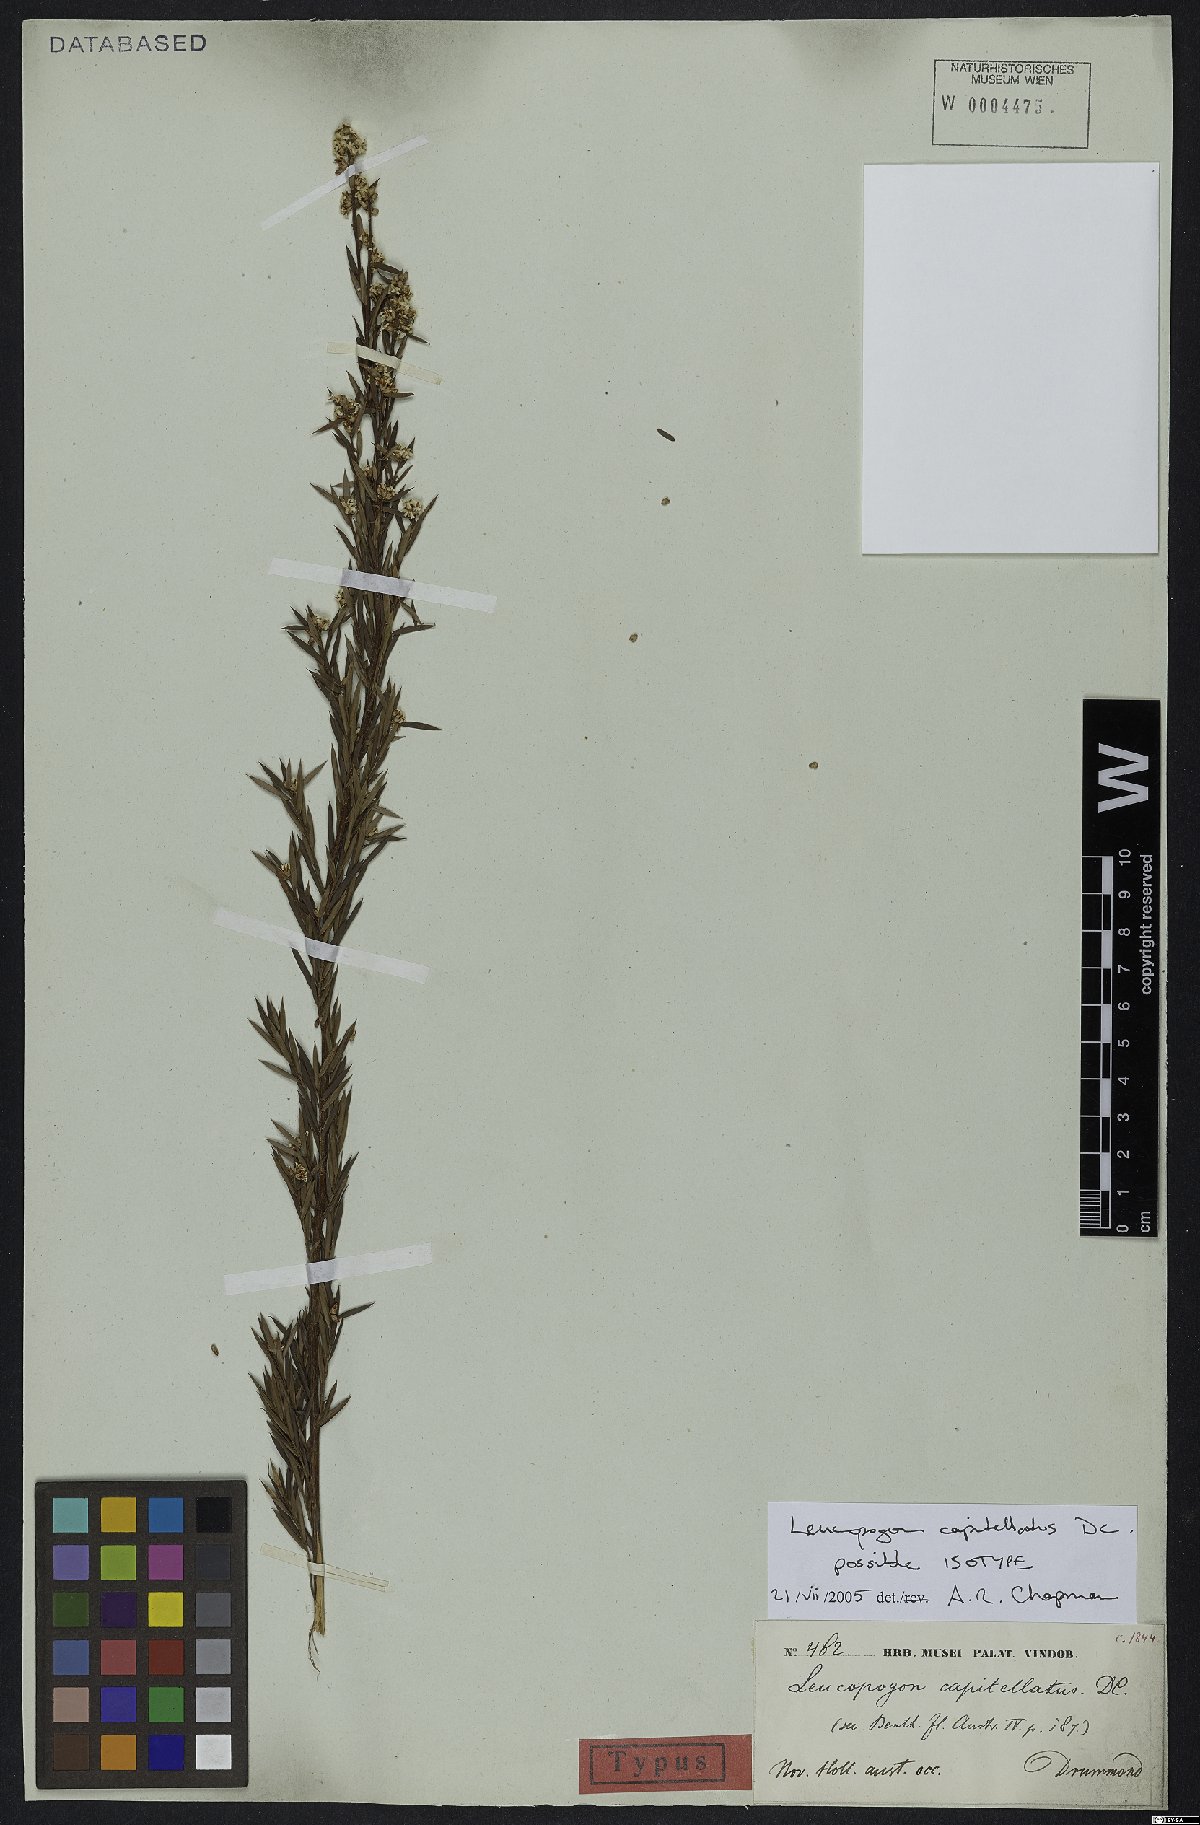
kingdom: Plantae
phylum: Tracheophyta
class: Magnoliopsida
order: Ericales
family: Ericaceae
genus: Leucopogon
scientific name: Leucopogon capitellatus
